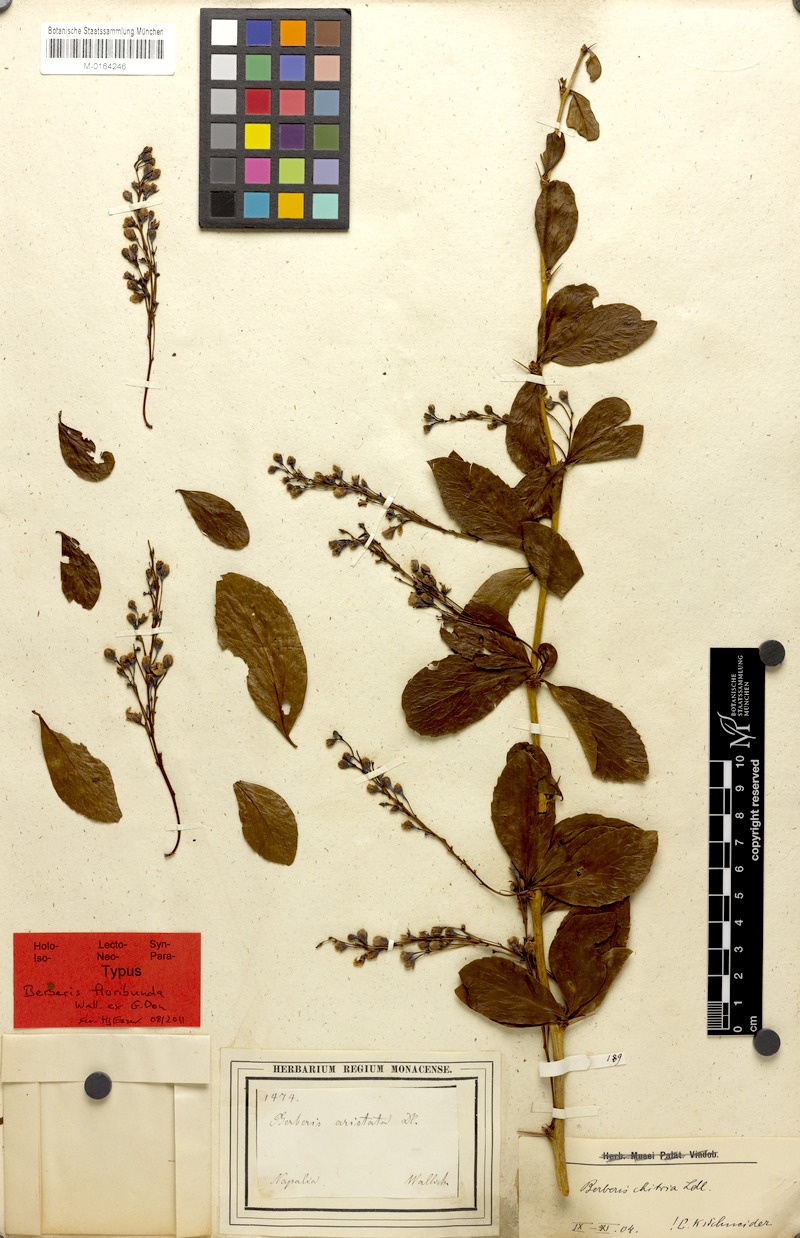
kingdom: Plantae
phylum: Tracheophyta
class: Magnoliopsida
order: Ranunculales
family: Berberidaceae
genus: Berberis
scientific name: Berberis aristata
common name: Indian barberry
